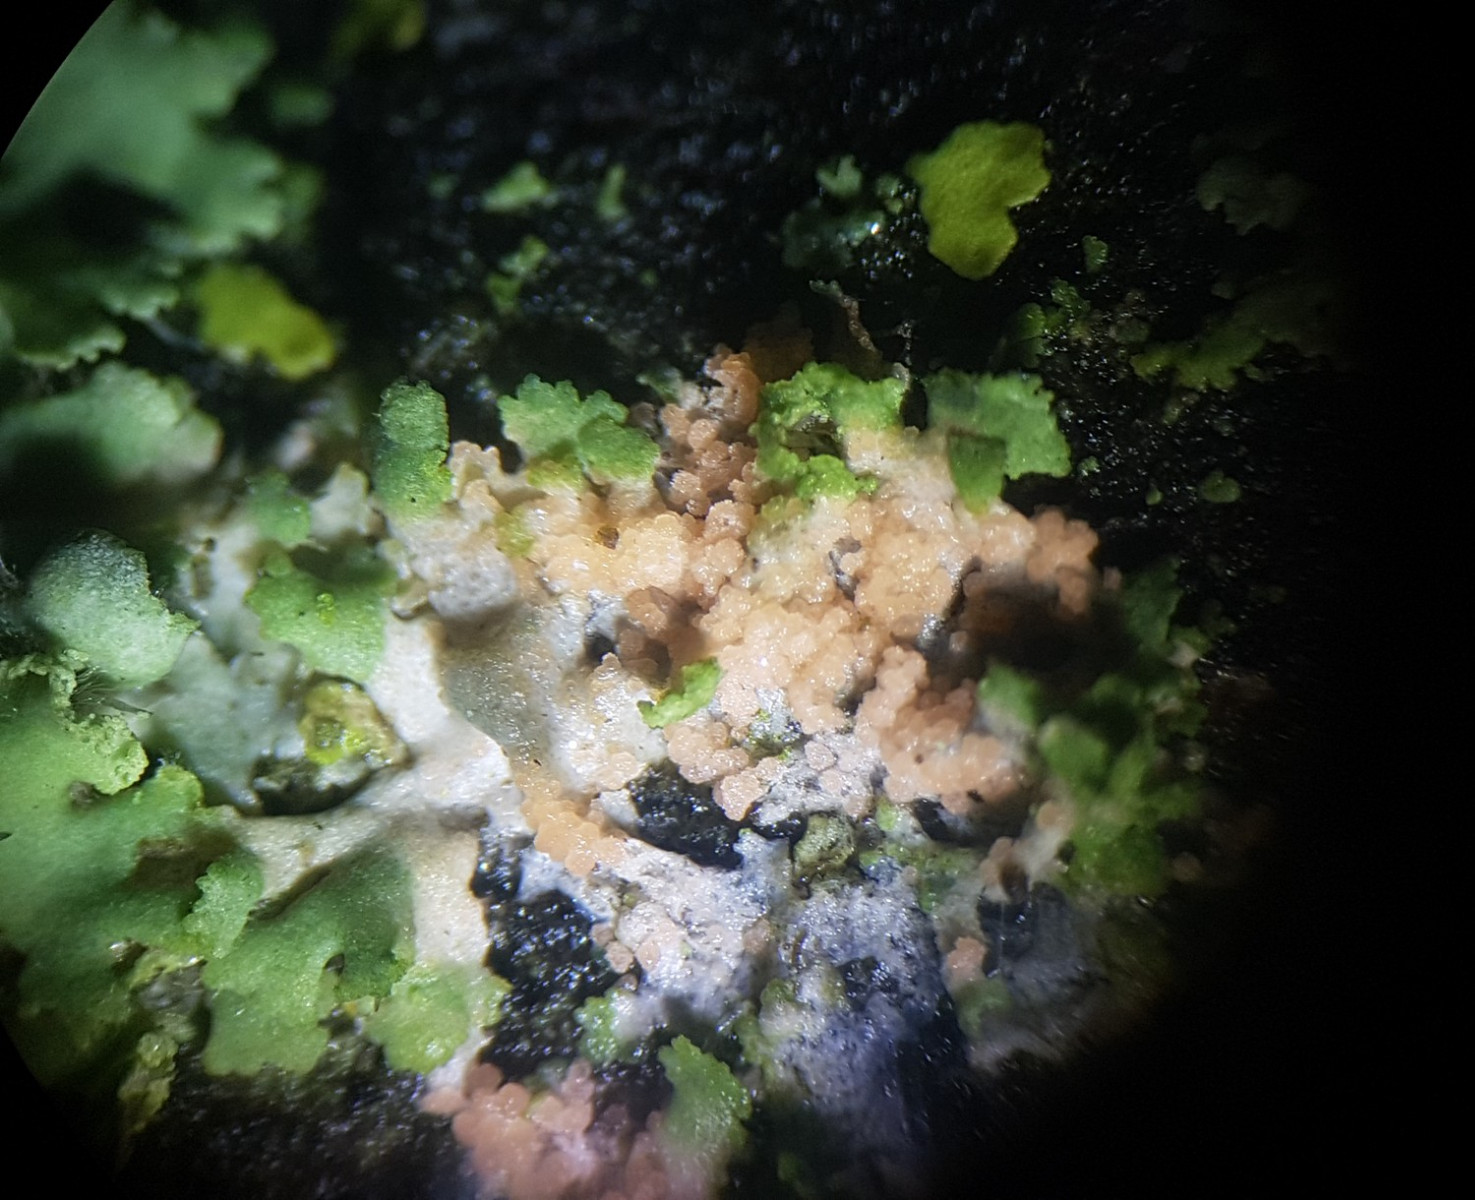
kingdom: Fungi
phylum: Basidiomycota
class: Agaricomycetes
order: Corticiales
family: Corticiaceae
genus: Erythricium
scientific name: Erythricium aurantiacum
